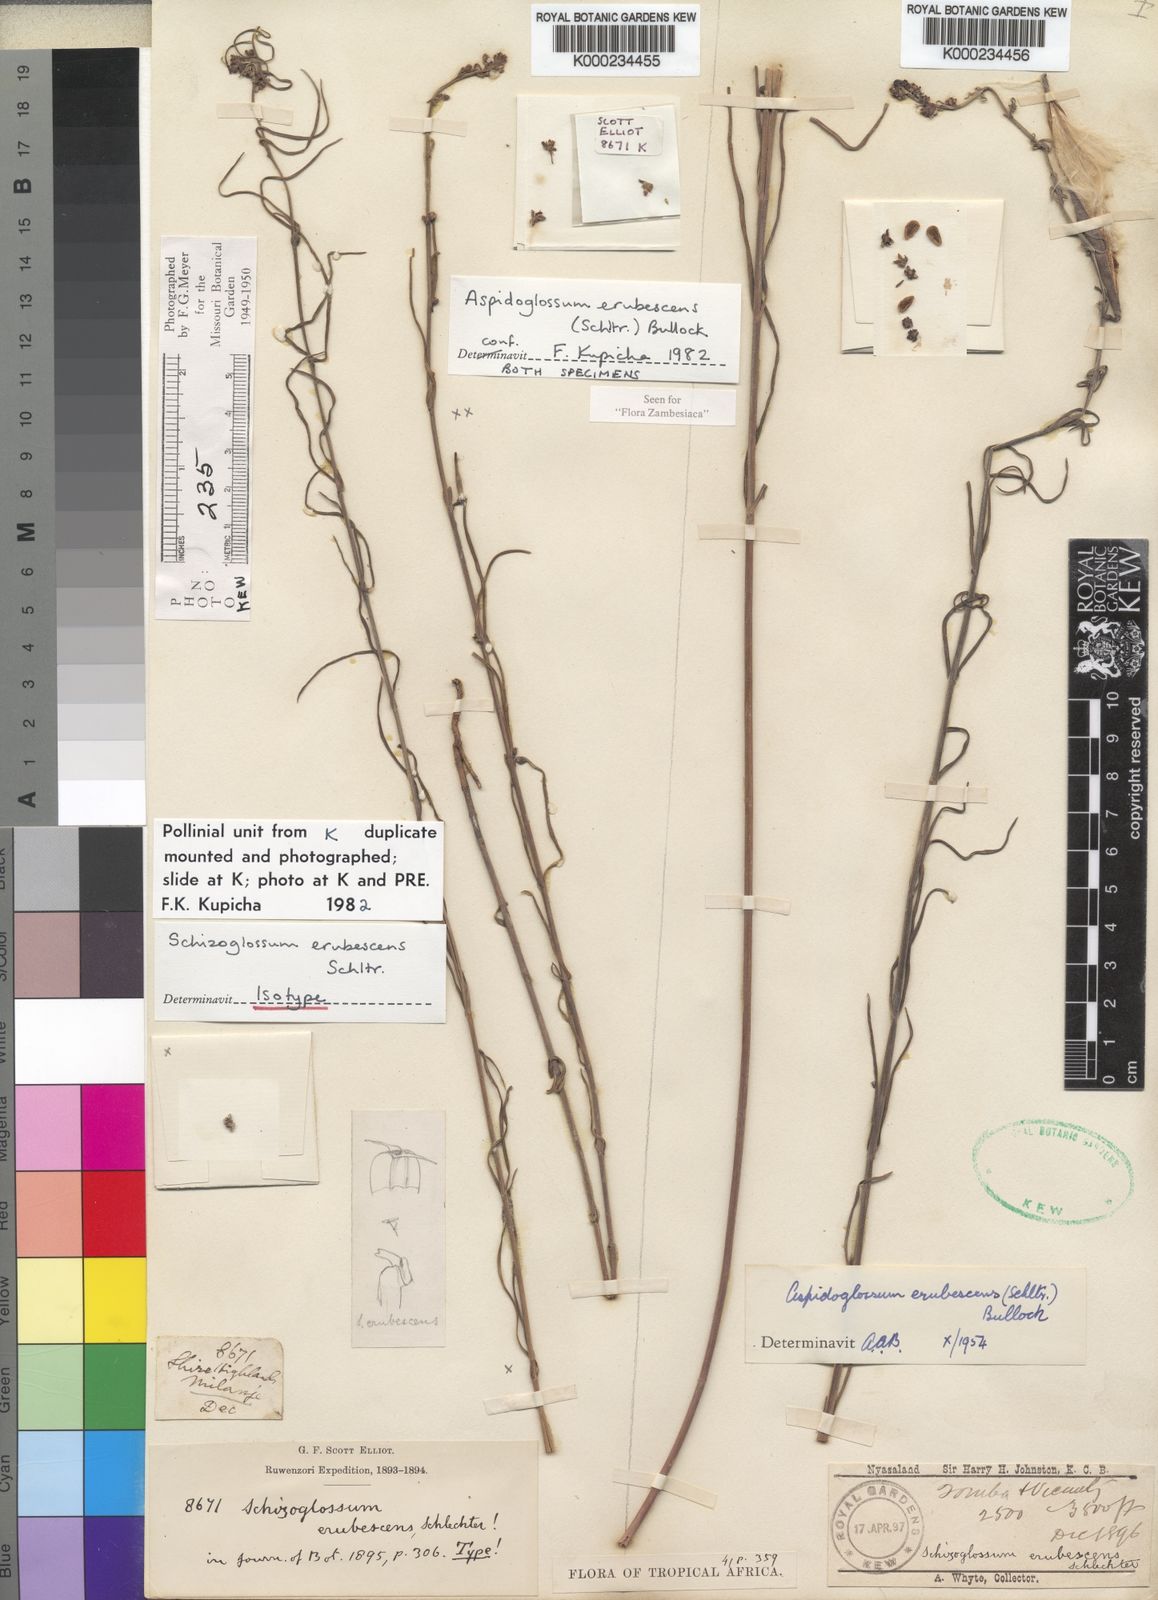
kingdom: Plantae
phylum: Tracheophyta
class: Magnoliopsida
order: Gentianales
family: Apocynaceae
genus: Aspidoglossum
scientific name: Aspidoglossum erubescens
